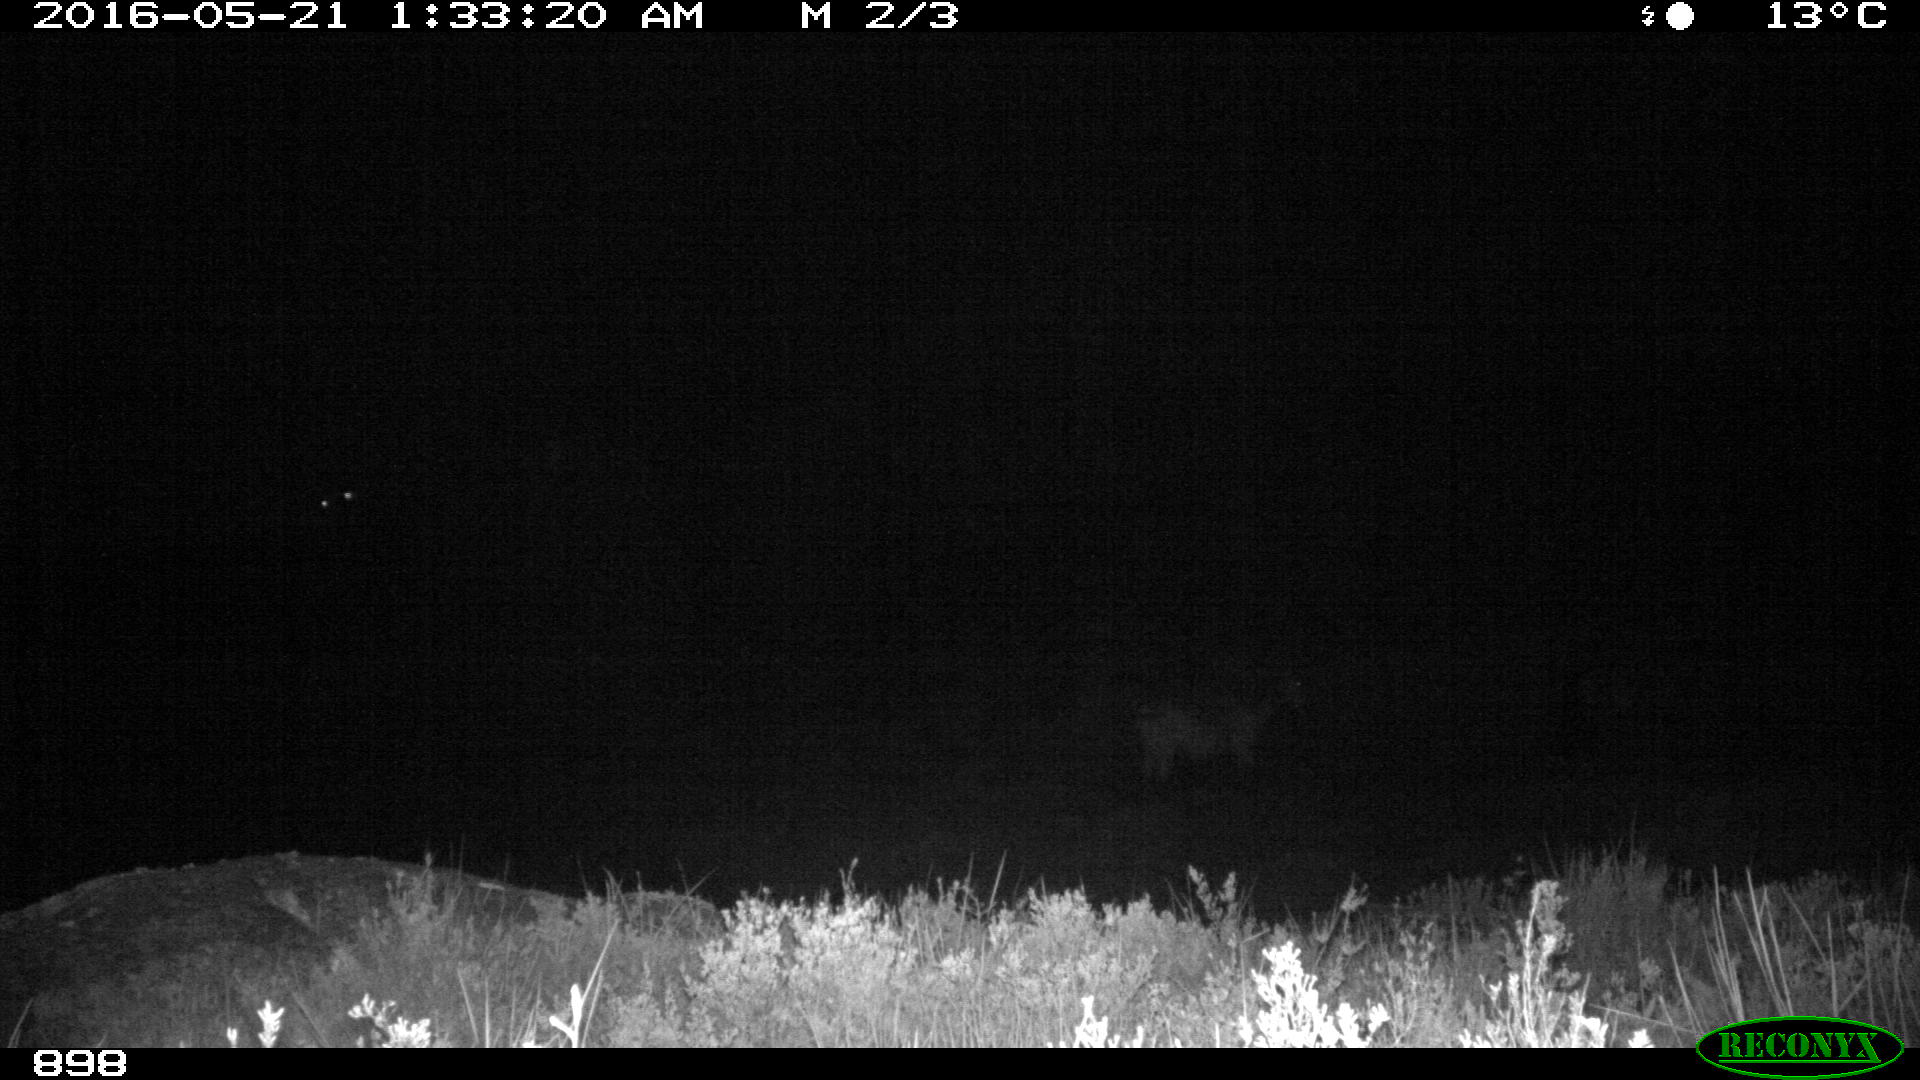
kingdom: Animalia
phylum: Chordata
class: Mammalia
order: Perissodactyla
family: Equidae
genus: Equus
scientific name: Equus caballus
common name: Horse
